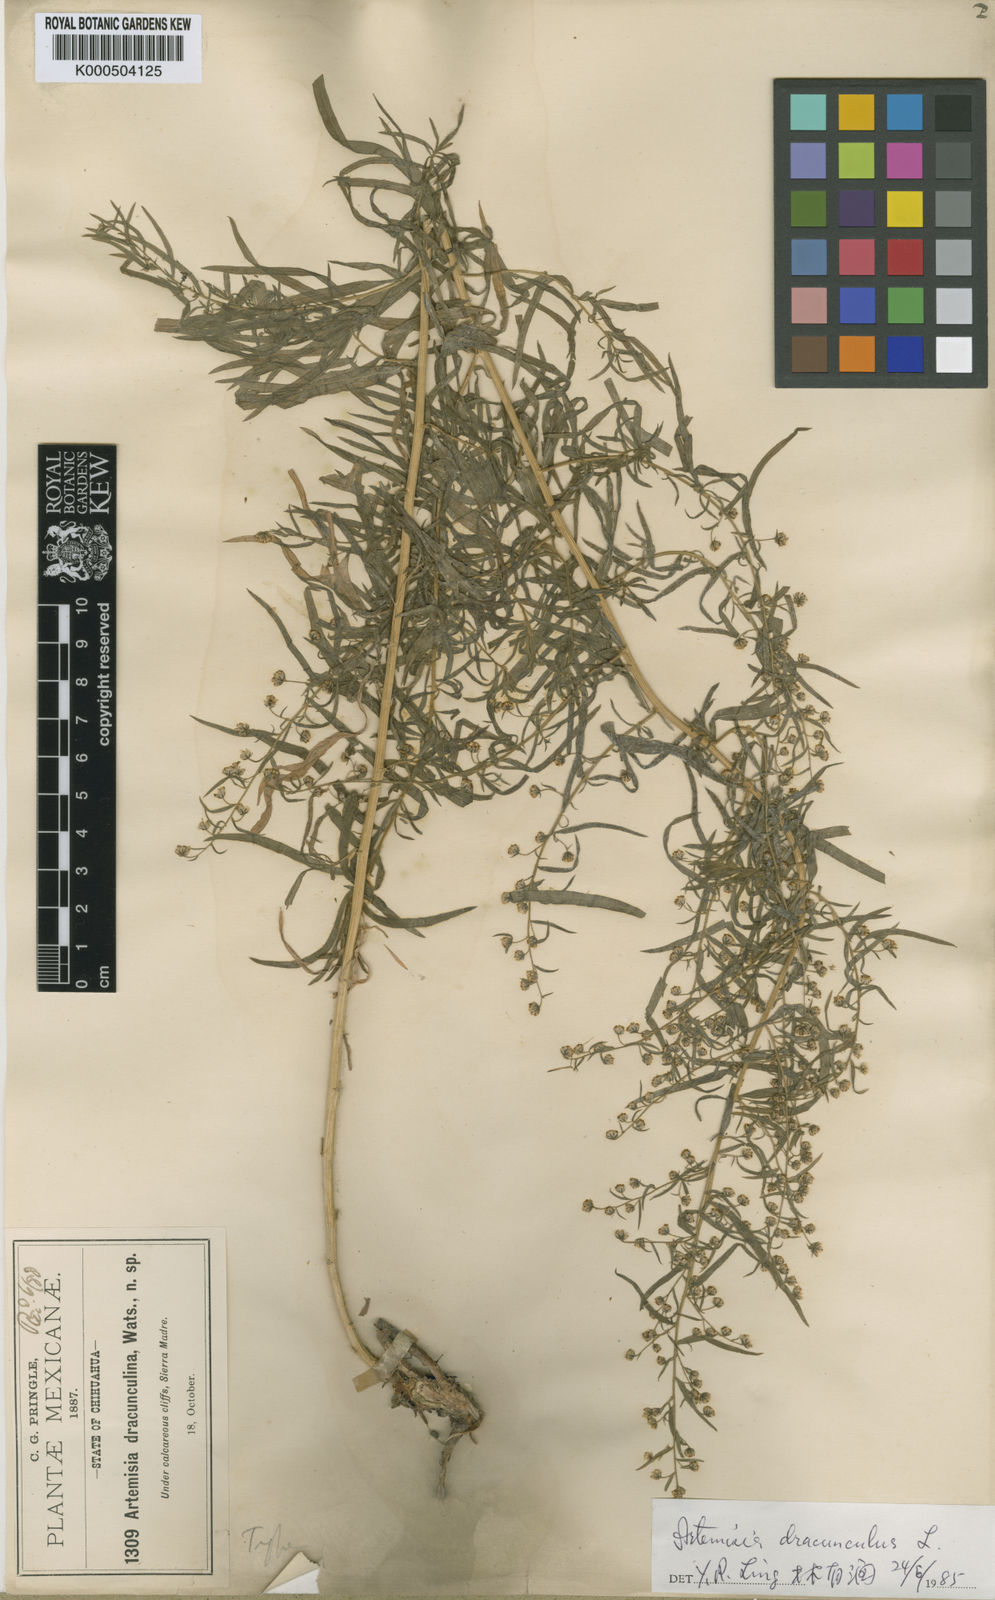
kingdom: Plantae
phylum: Tracheophyta
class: Magnoliopsida
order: Asterales
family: Asteraceae
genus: Artemisia
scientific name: Artemisia dracunculus
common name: Tarragon
